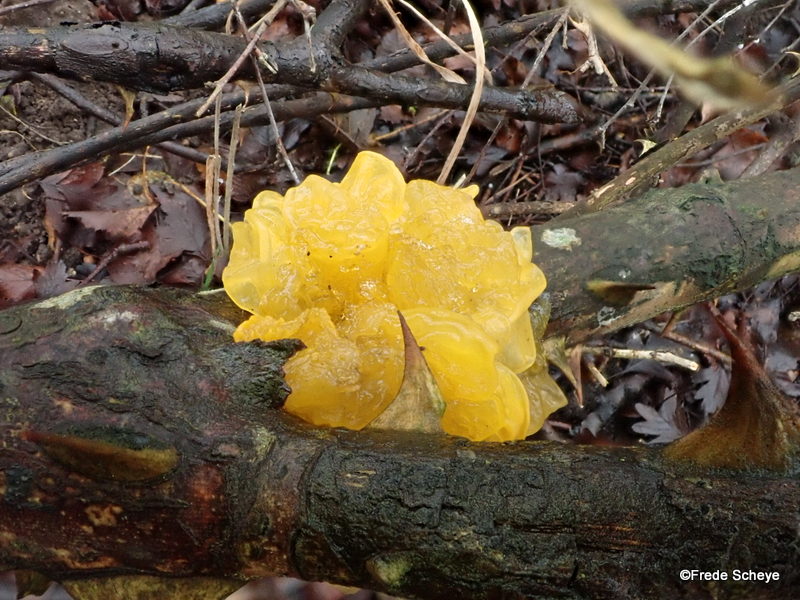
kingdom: Fungi
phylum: Basidiomycota
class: Tremellomycetes
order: Tremellales
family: Tremellaceae
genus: Tremella
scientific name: Tremella mesenterica
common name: gul bævresvamp
